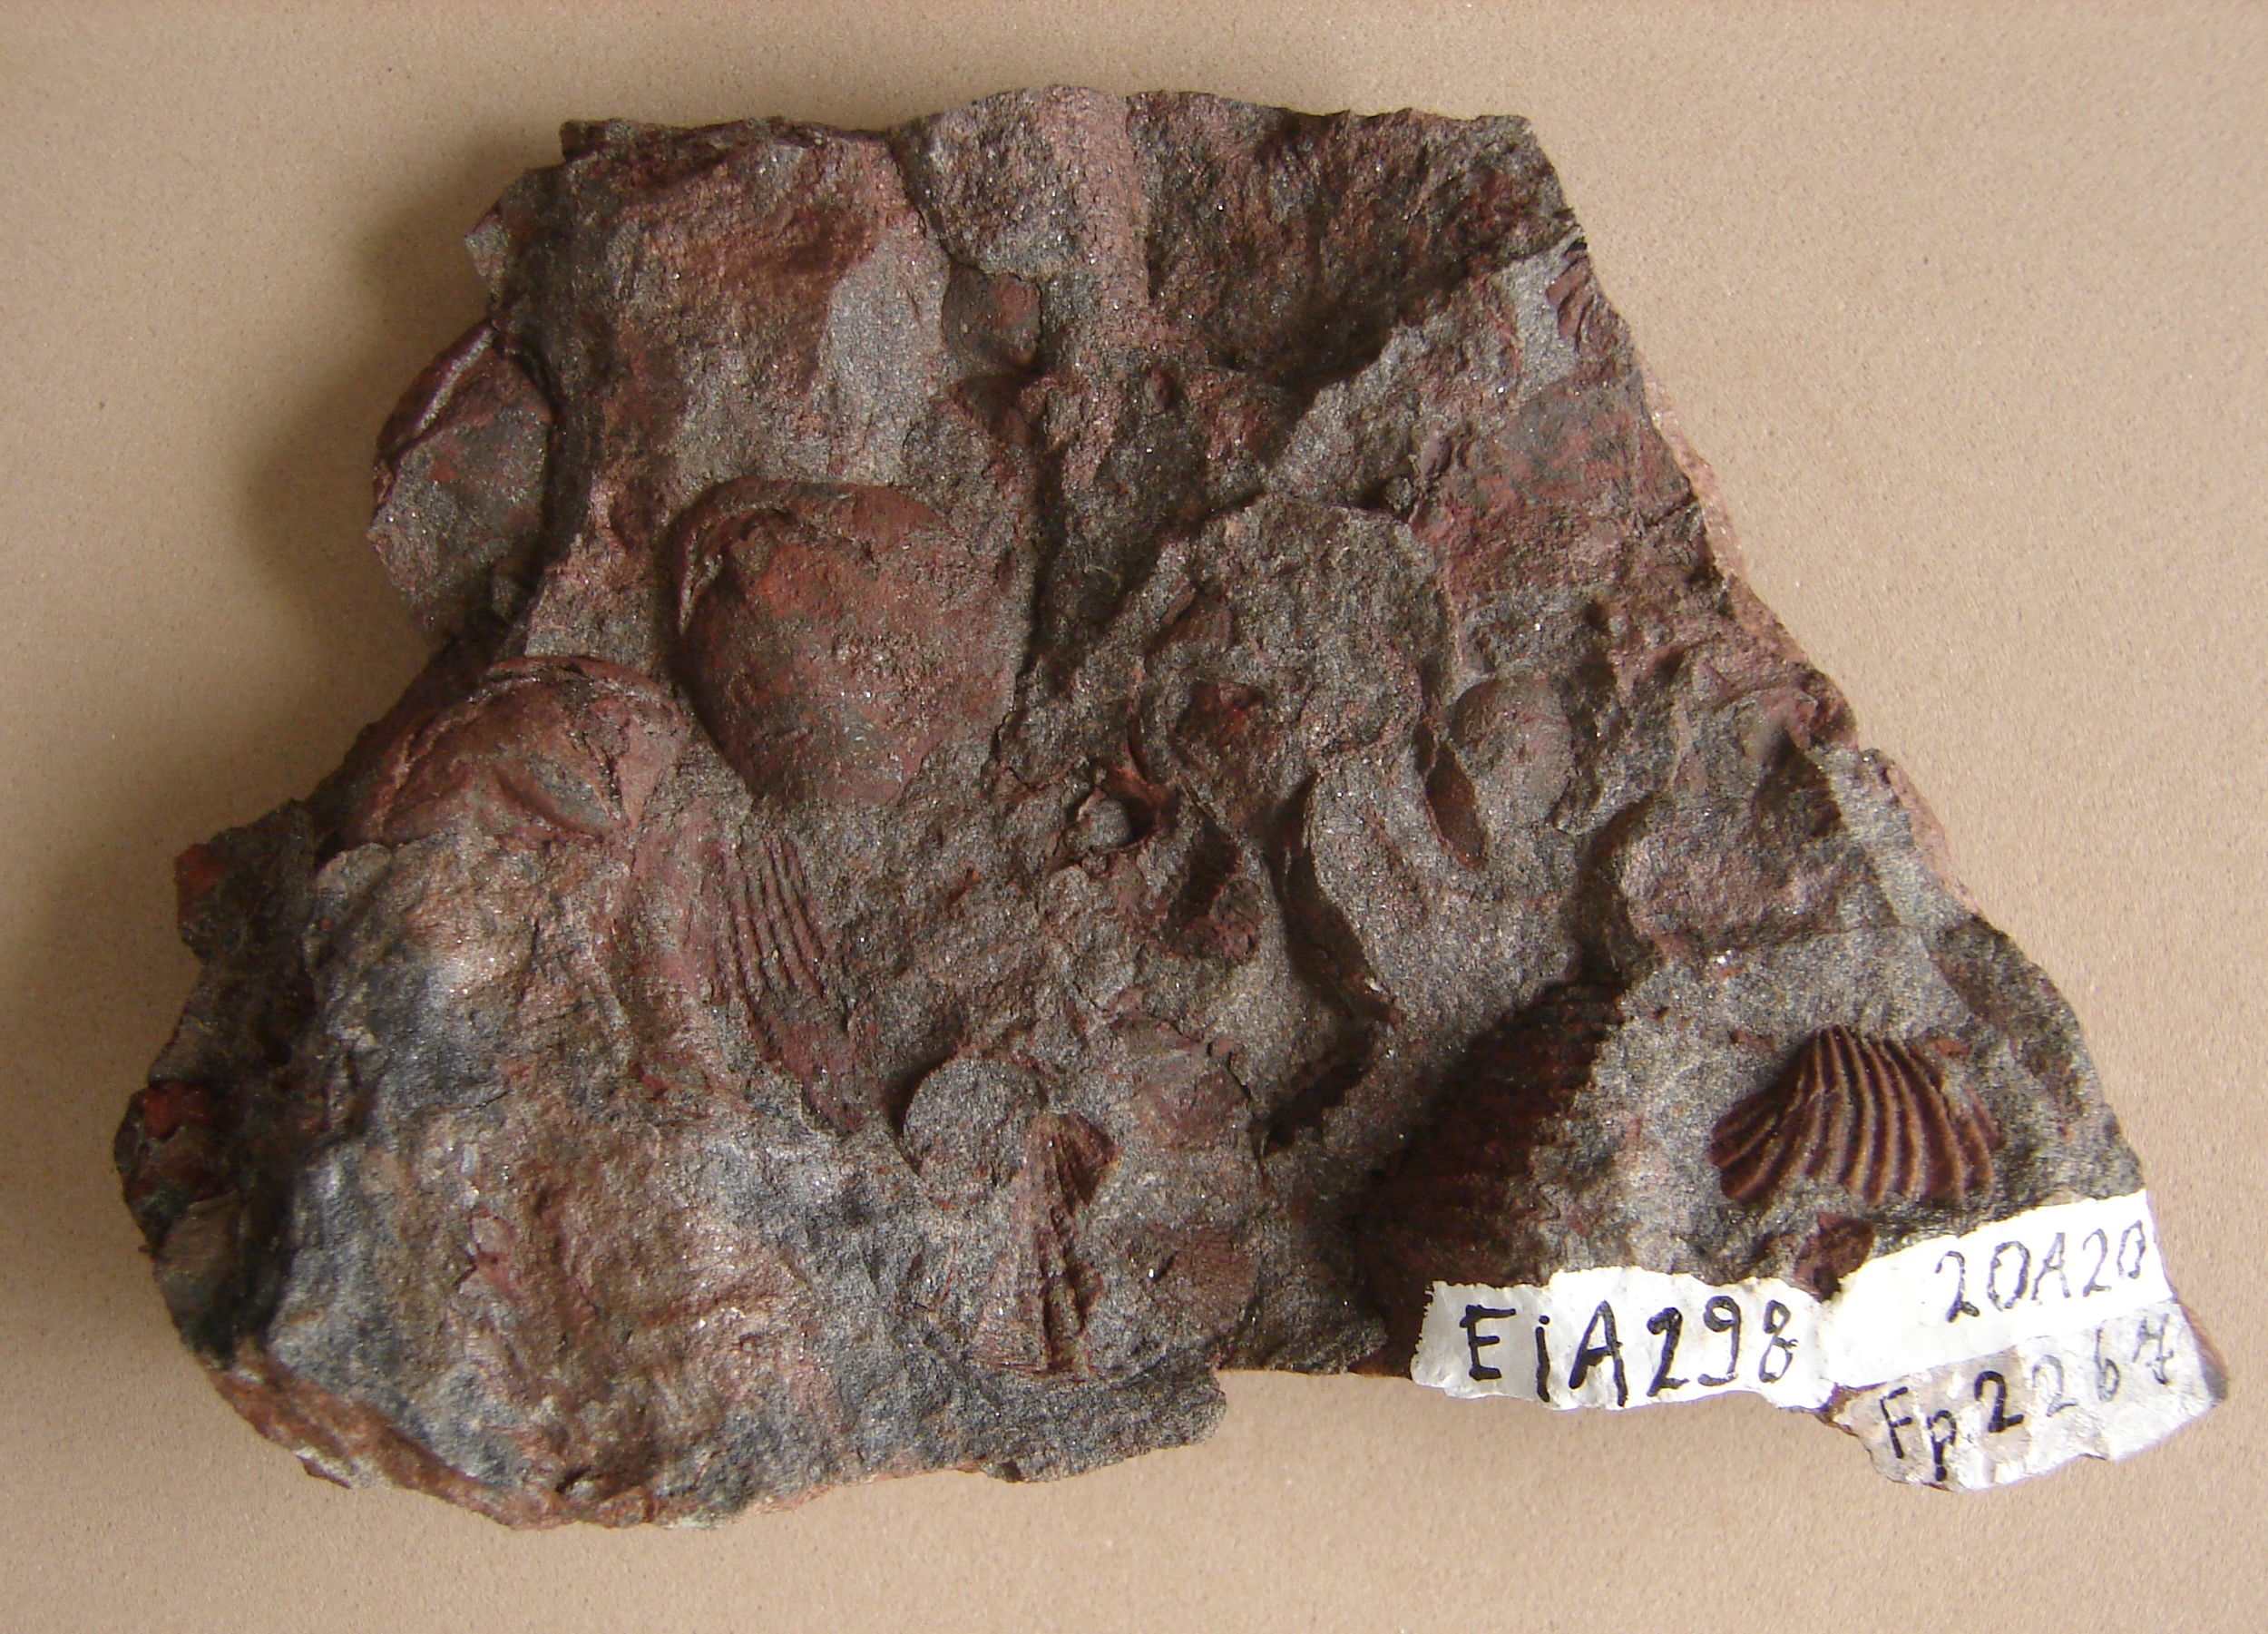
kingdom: Animalia
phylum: Brachiopoda
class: Rhynchonellata
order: Rhynchonellida
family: Trigonirhynchiidae
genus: Oligoptycherhynchus
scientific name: Oligoptycherhynchus
